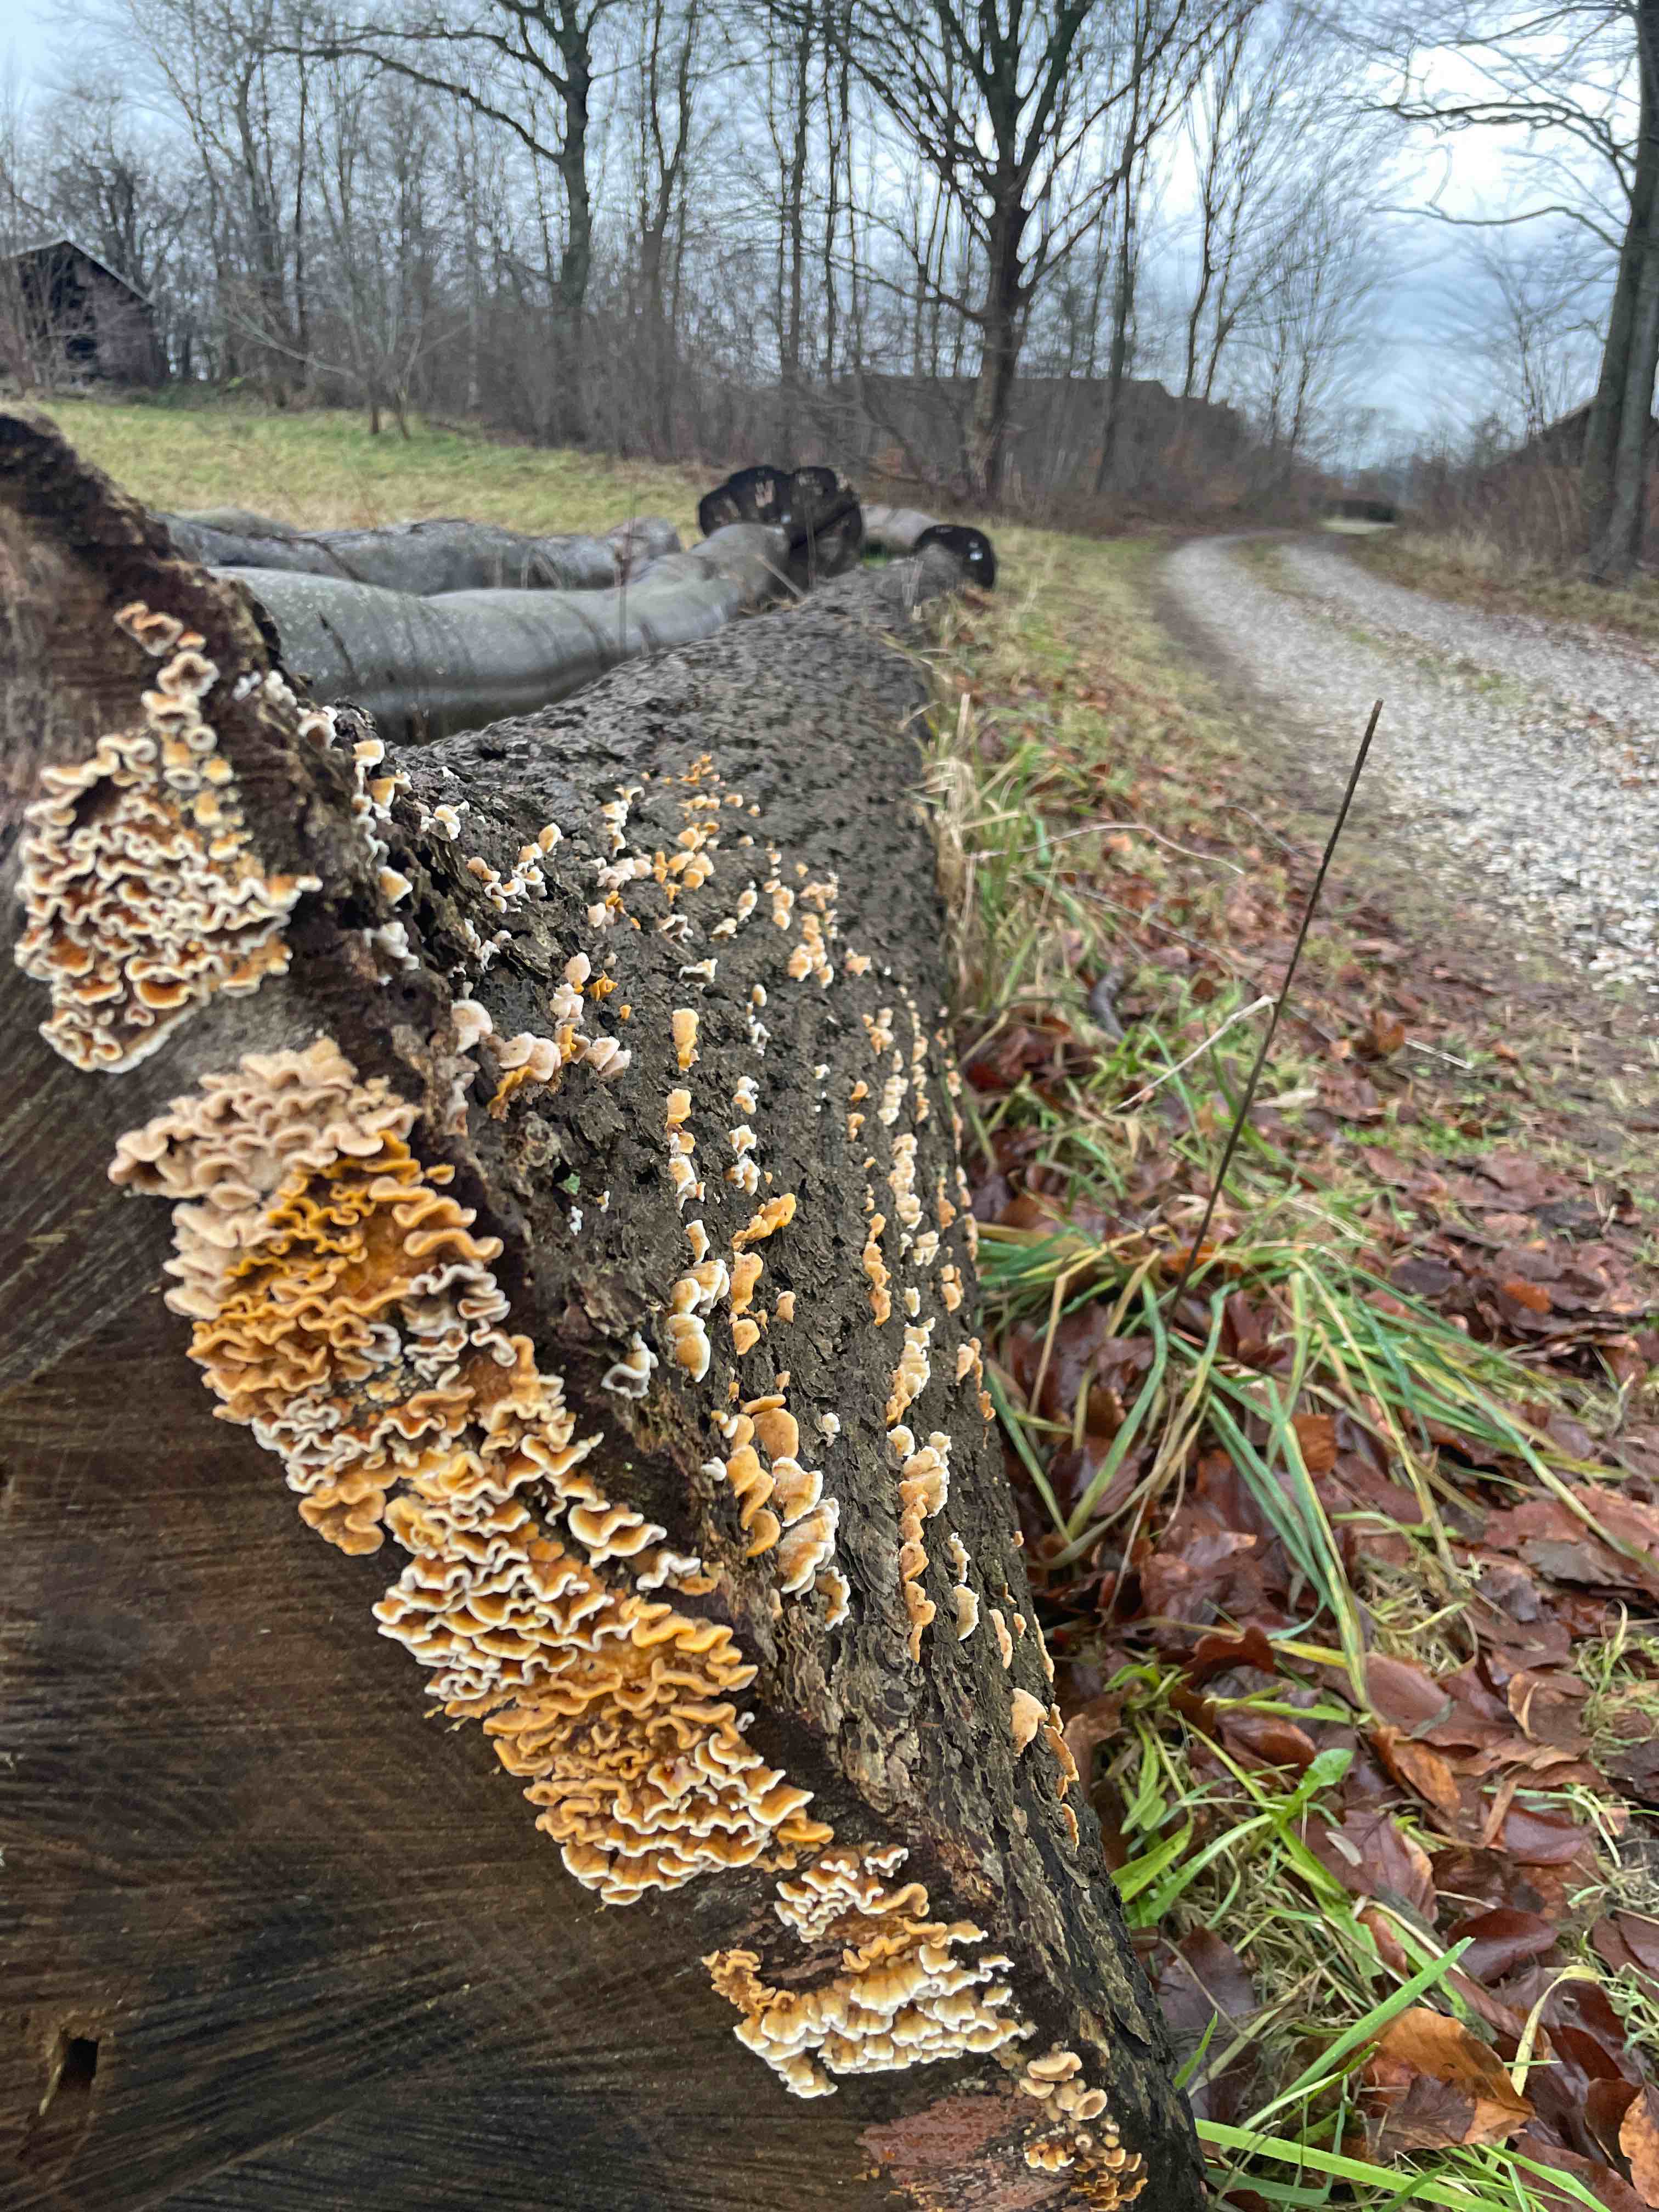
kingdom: Fungi
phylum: Basidiomycota
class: Agaricomycetes
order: Russulales
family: Stereaceae
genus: Stereum
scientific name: Stereum hirsutum
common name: håret lædersvamp
